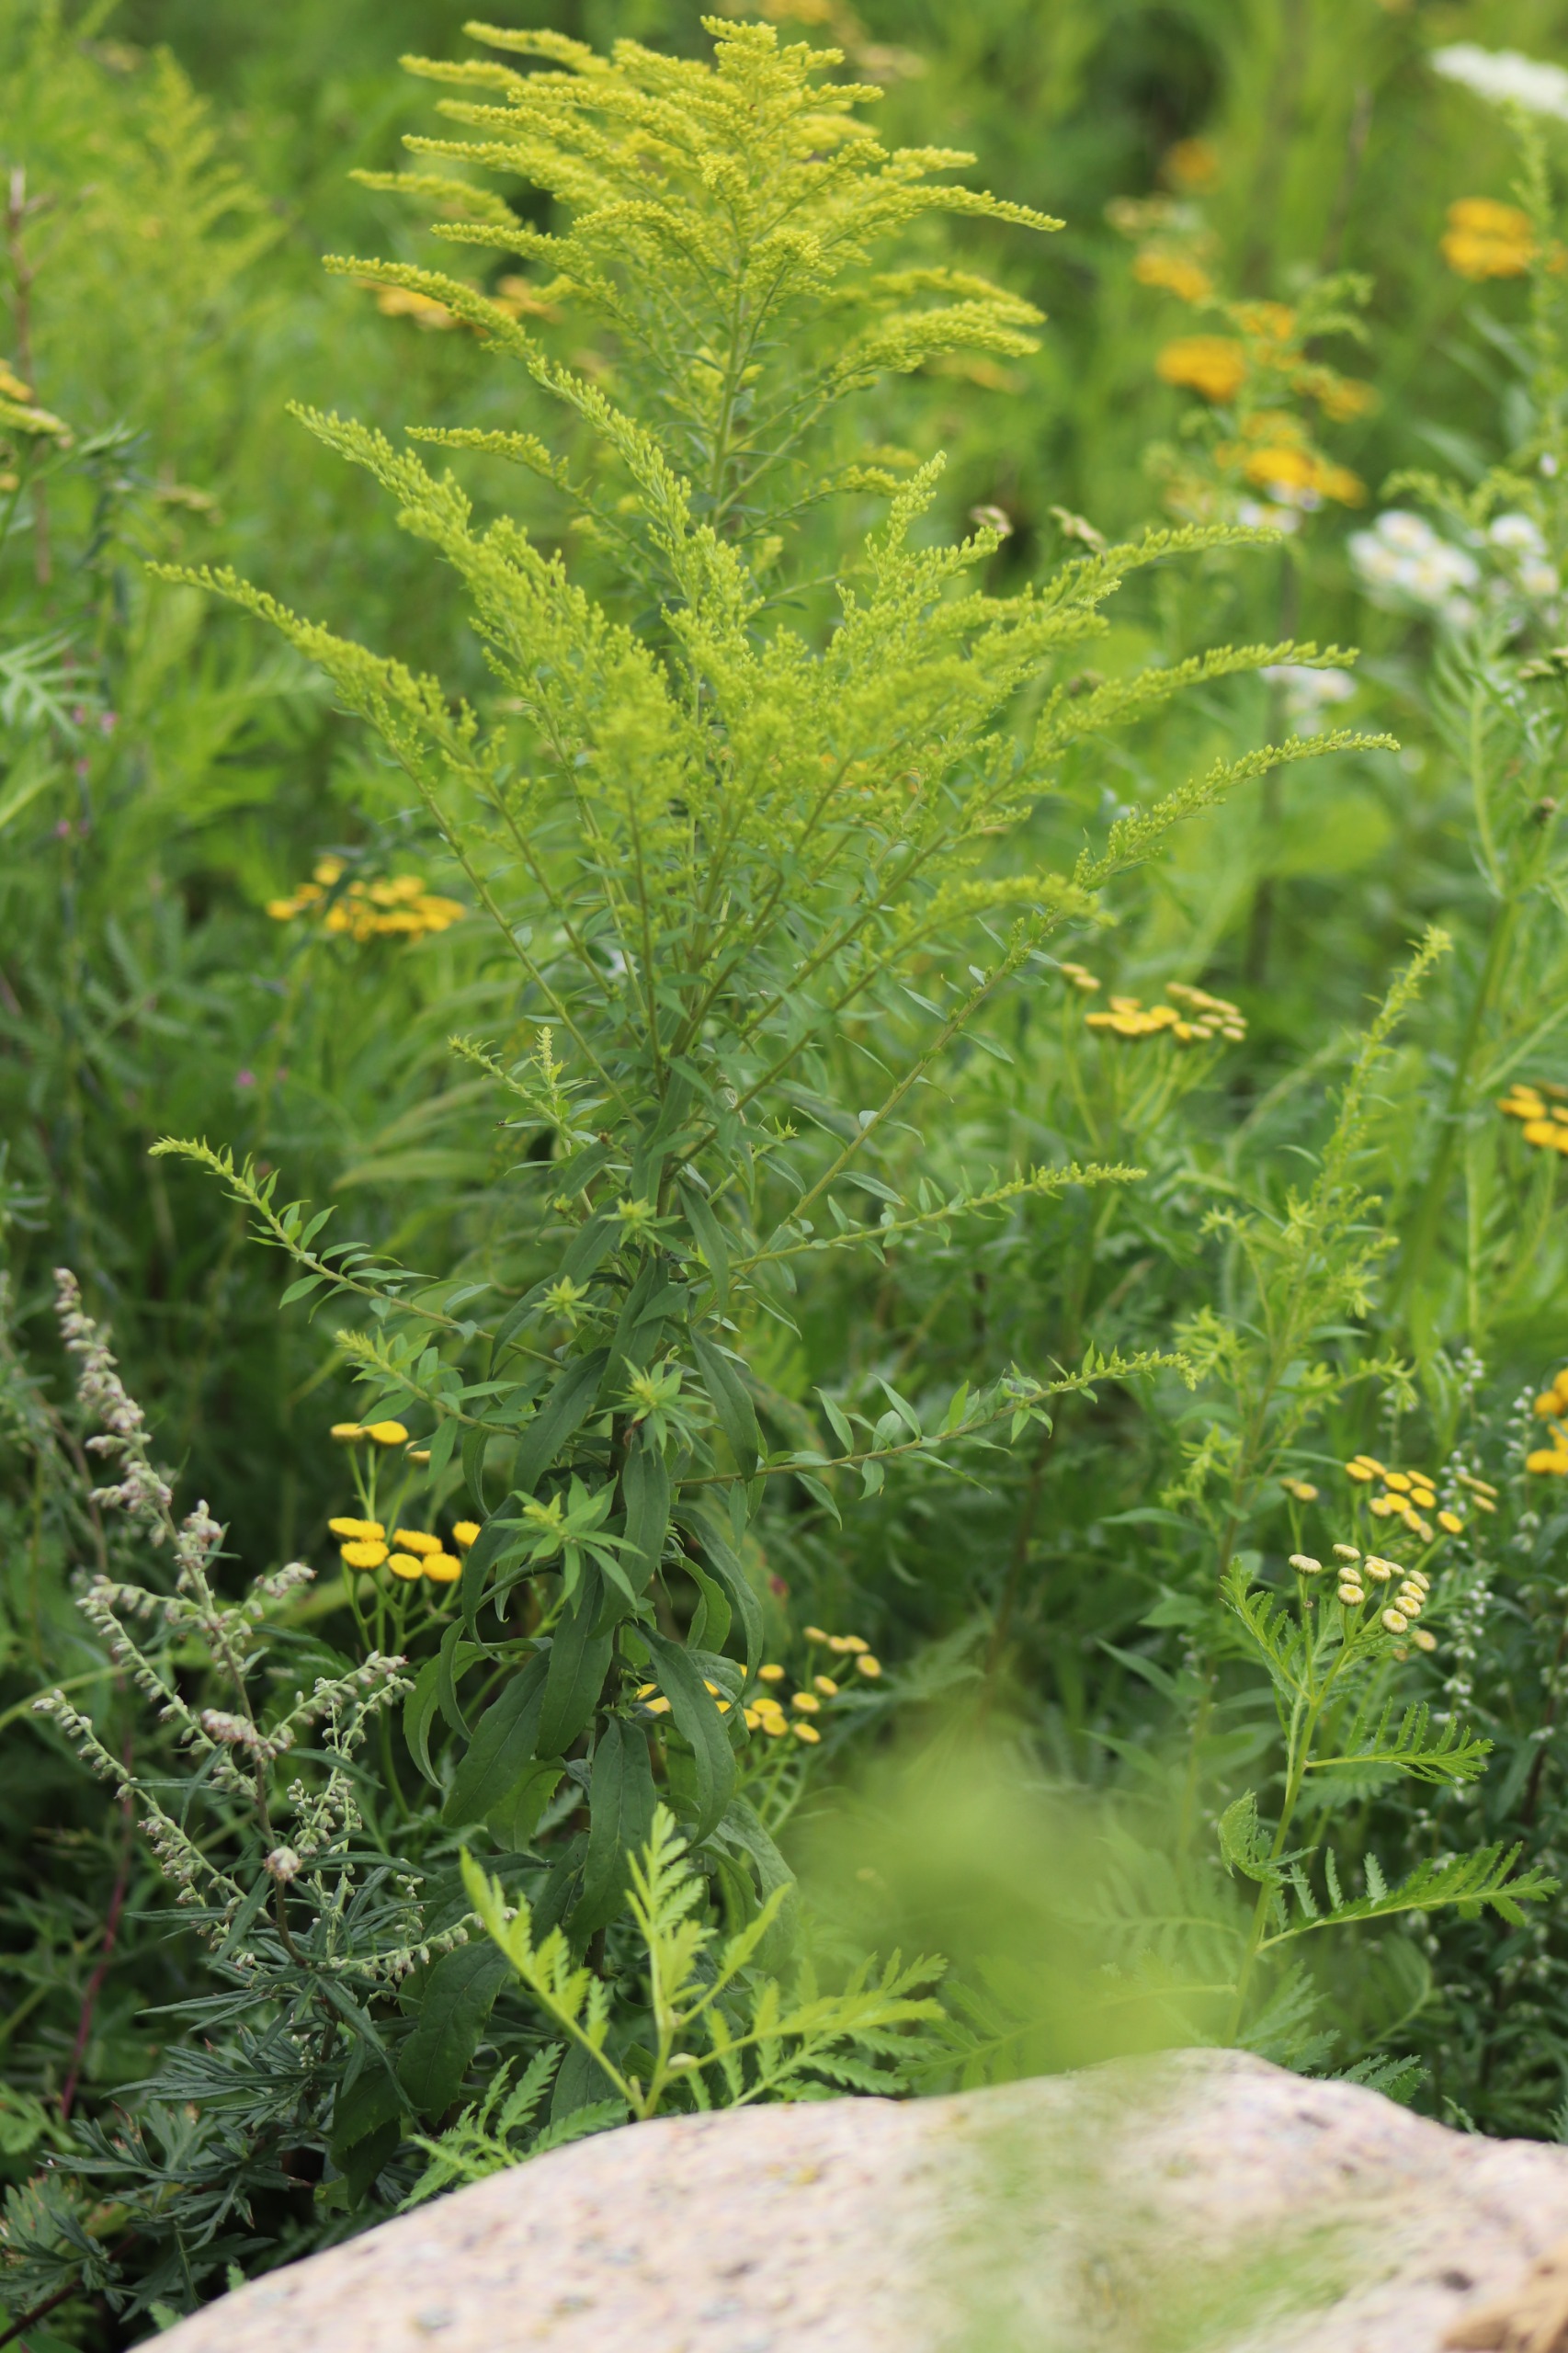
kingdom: Plantae
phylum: Tracheophyta
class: Magnoliopsida
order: Asterales
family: Asteraceae
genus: Solidago
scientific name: Solidago gigantea
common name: Sildig gyldenris
